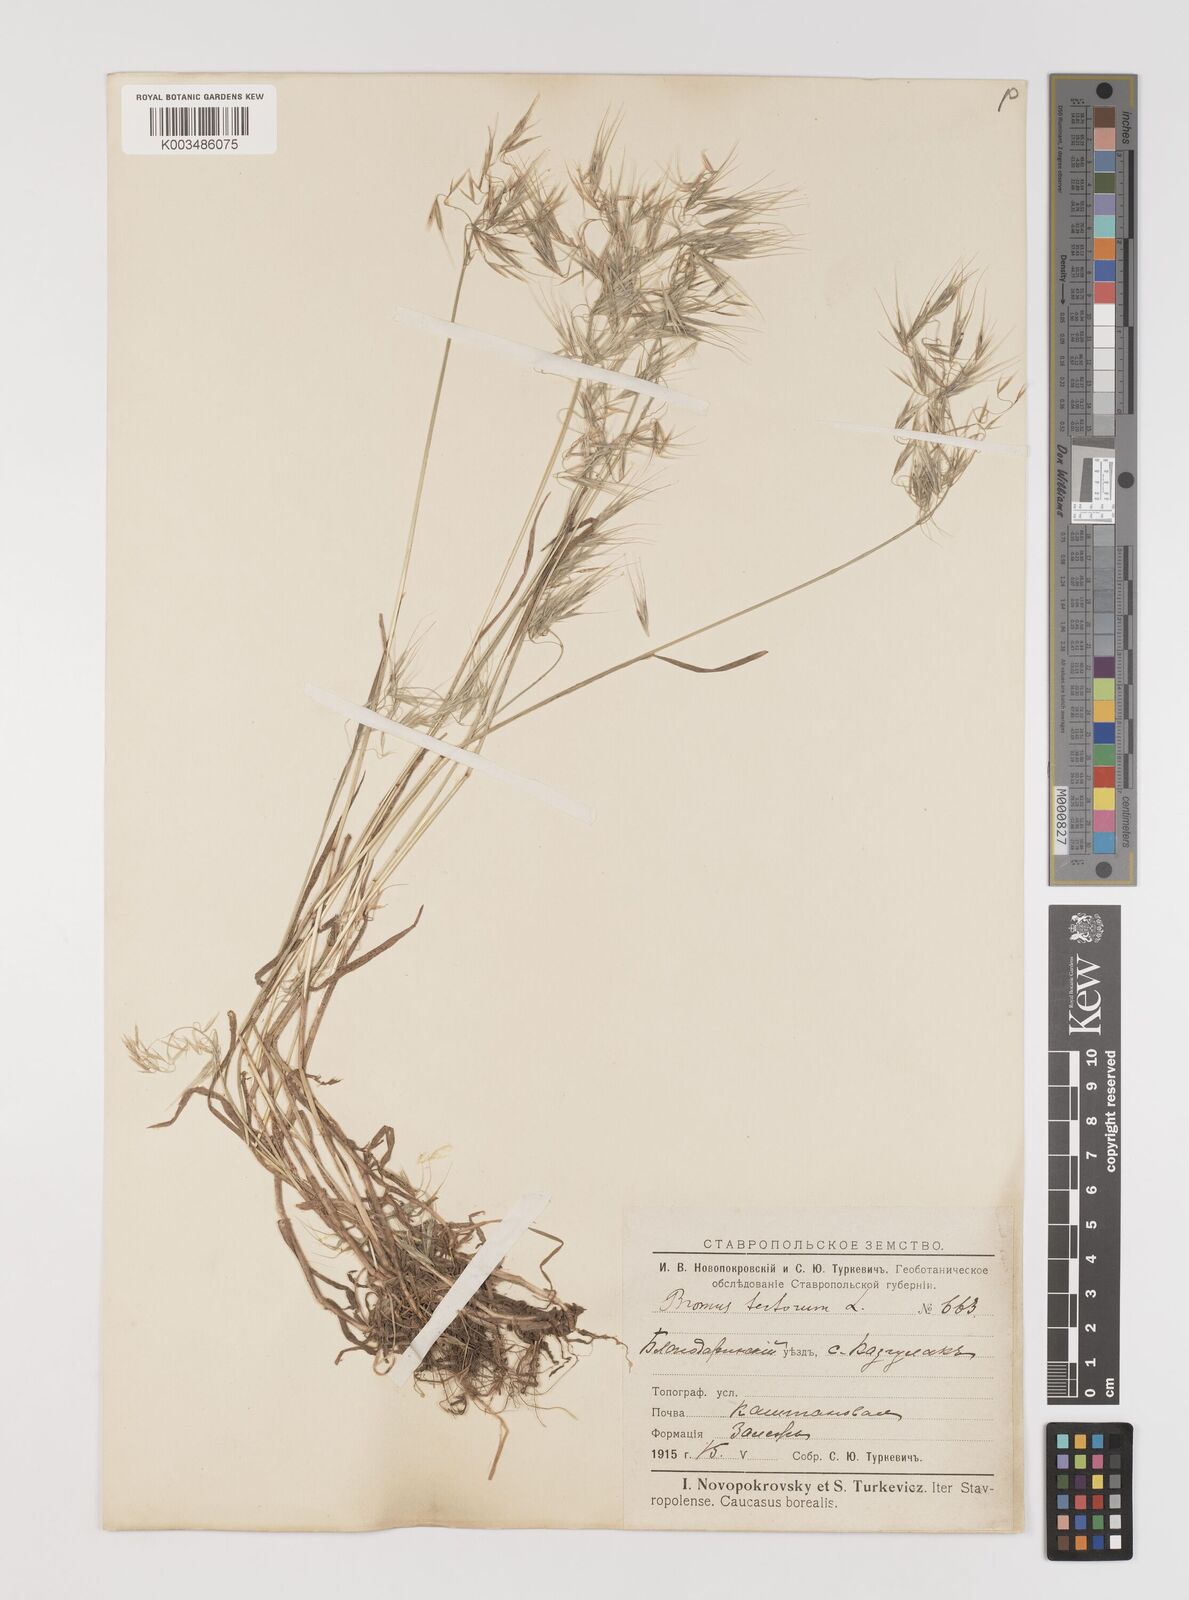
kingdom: Plantae
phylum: Tracheophyta
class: Liliopsida
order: Poales
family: Poaceae
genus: Bromus
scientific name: Bromus tectorum
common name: Cheatgrass
